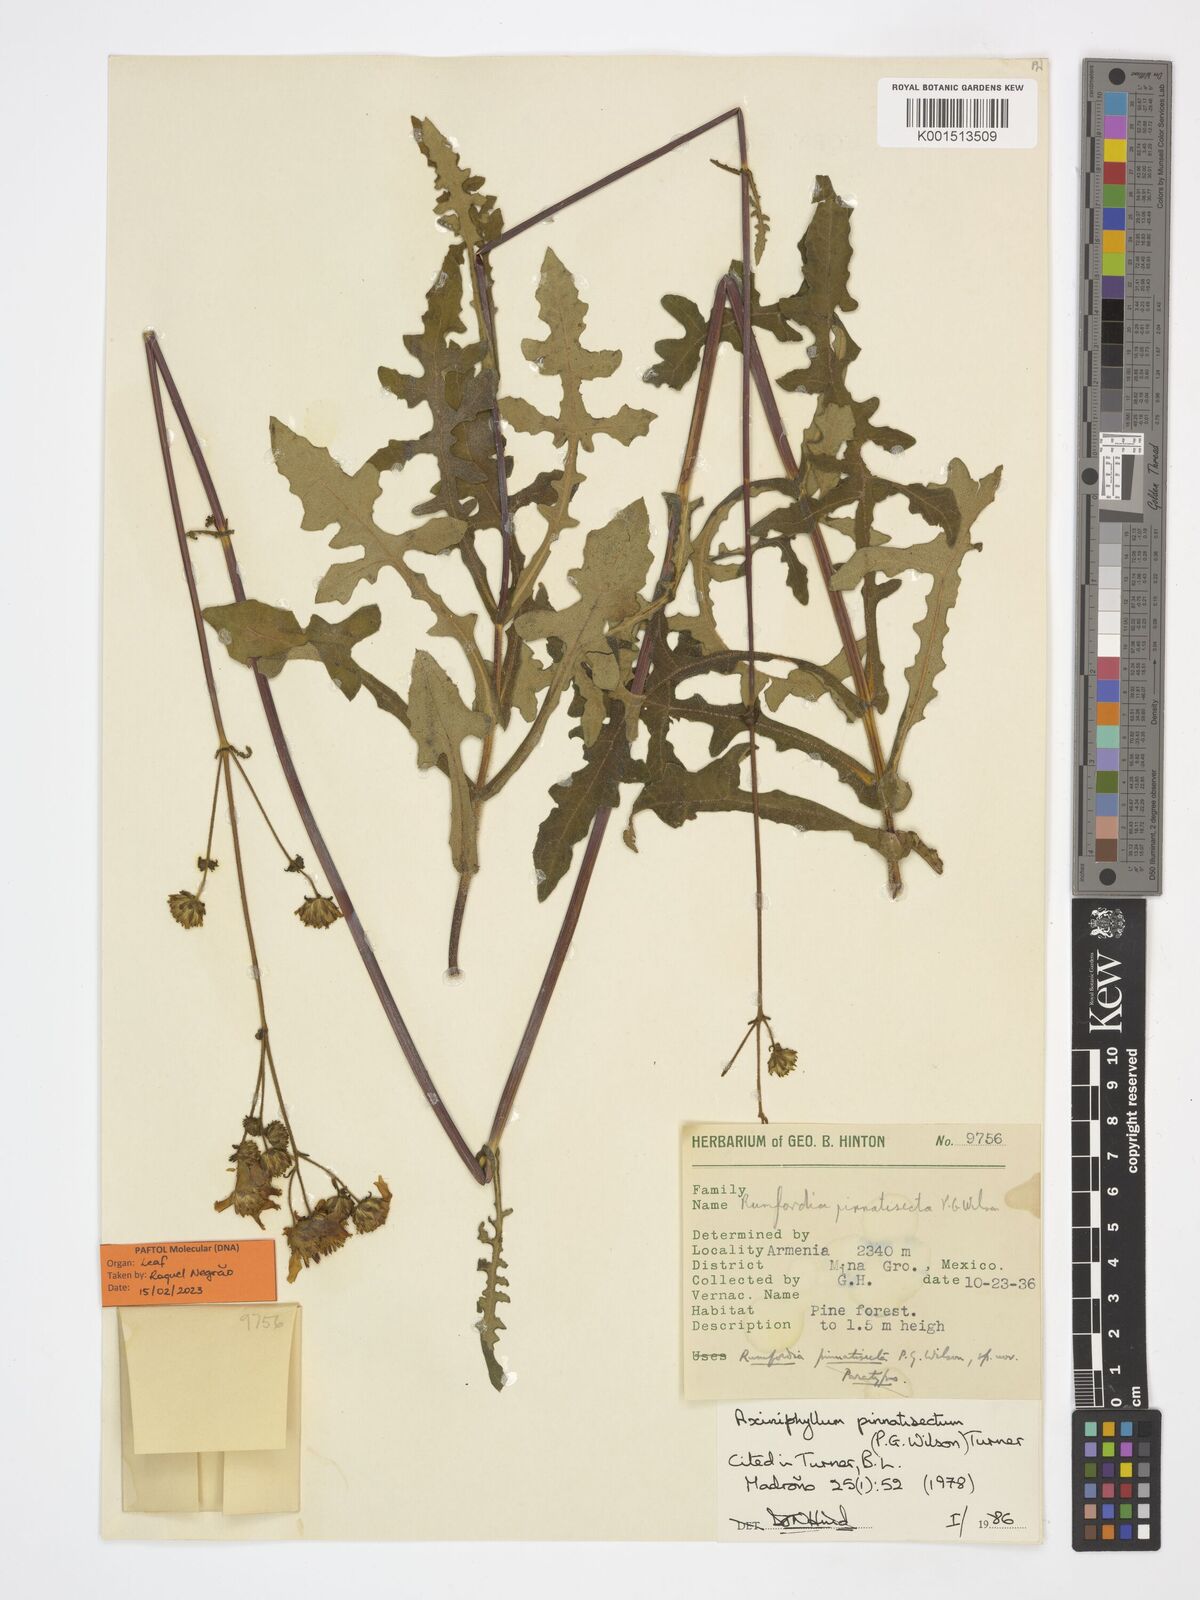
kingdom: Plantae
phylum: Tracheophyta
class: Magnoliopsida
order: Asterales
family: Asteraceae
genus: Axiniphyllum
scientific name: Axiniphyllum pinnatisectum
